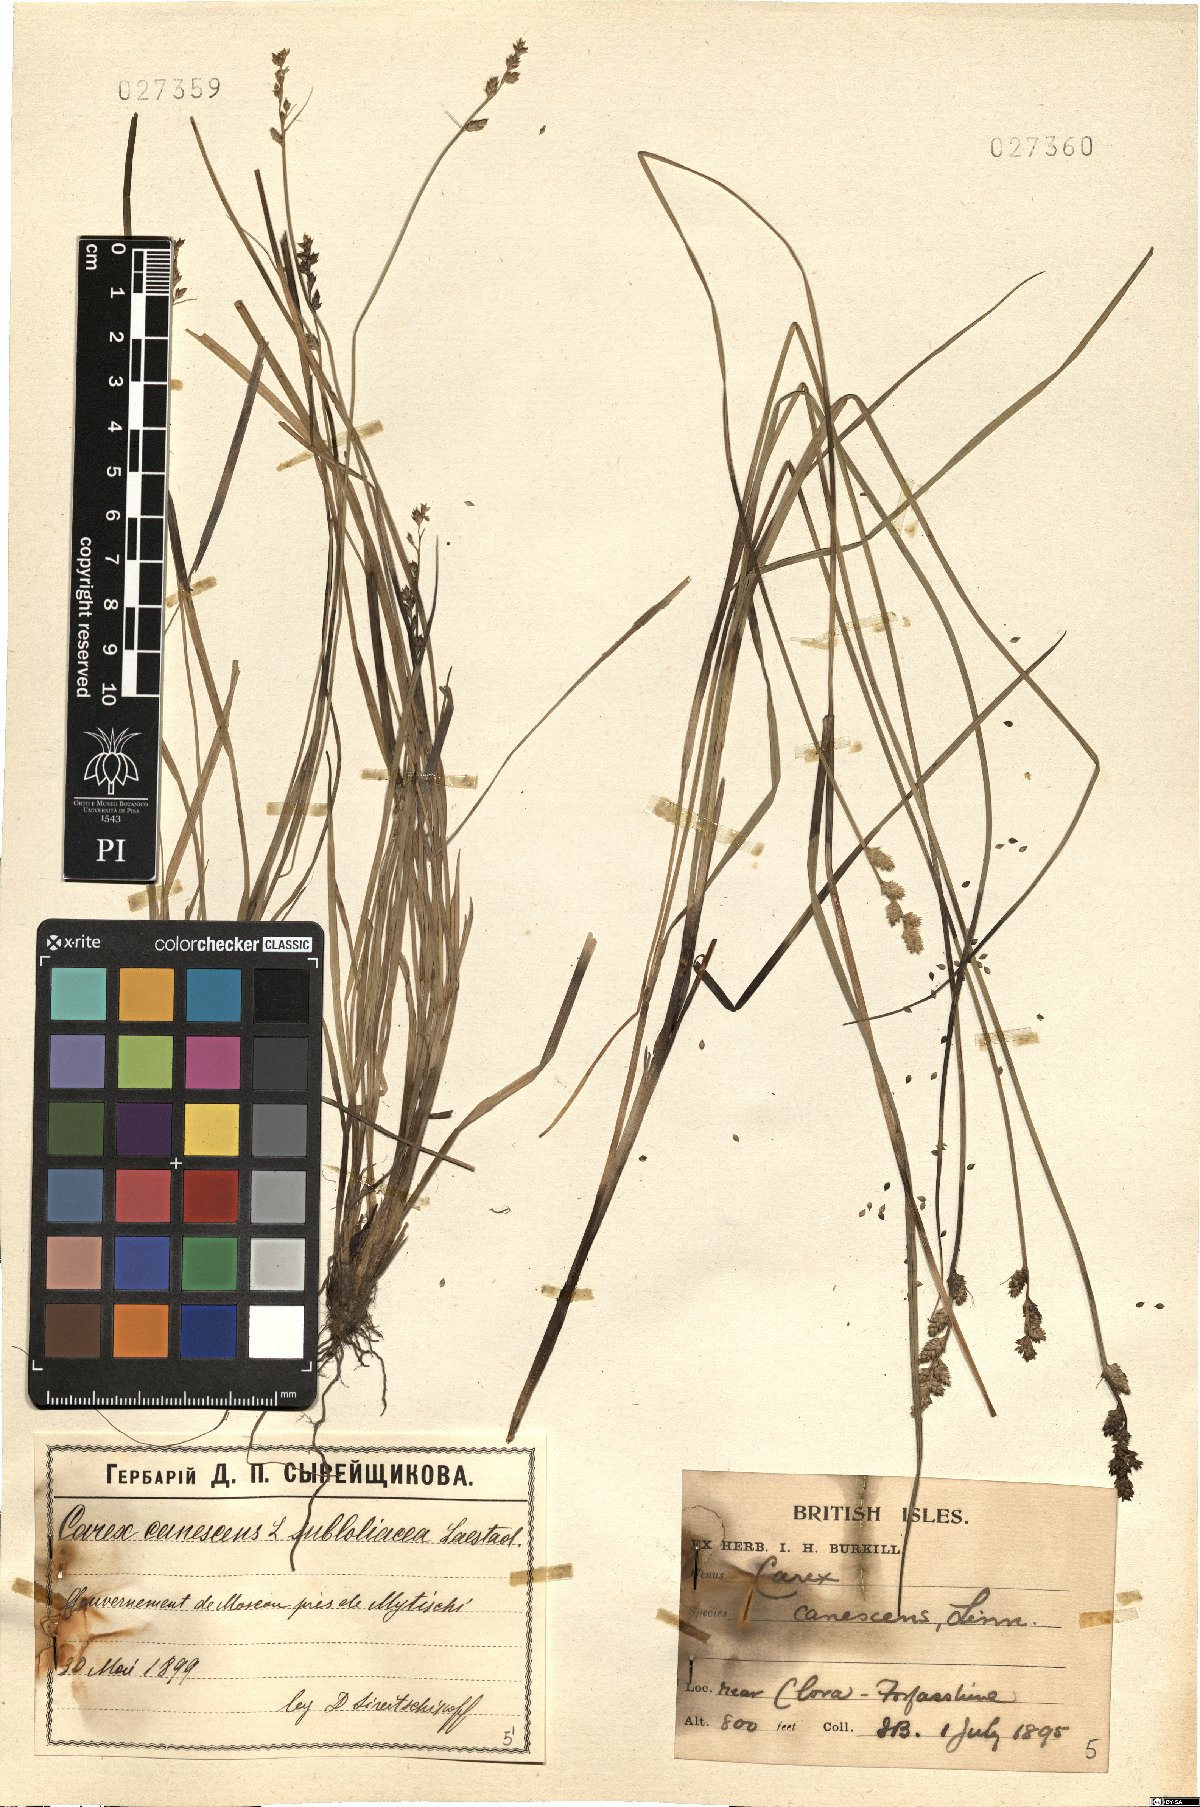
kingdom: Plantae
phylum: Tracheophyta
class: Liliopsida
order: Poales
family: Cyperaceae
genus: Carex
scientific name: Carex canescens
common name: White sedge
